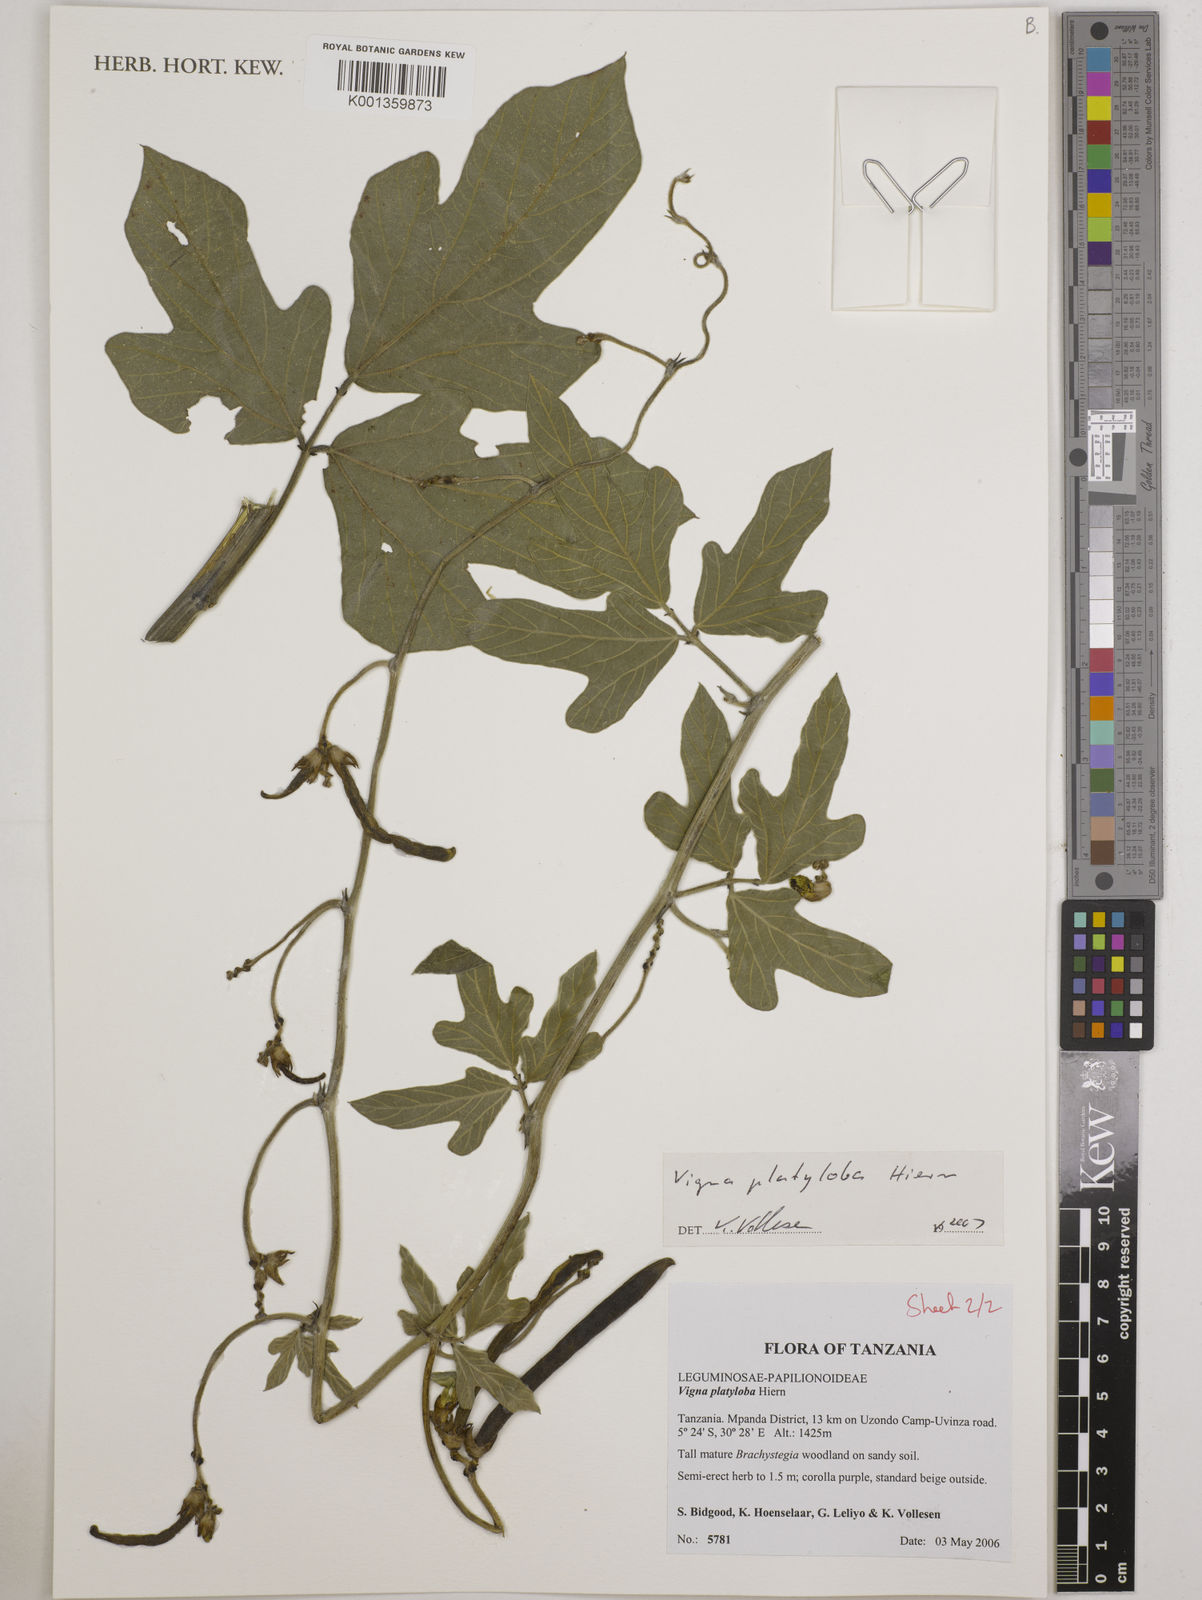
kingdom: Plantae
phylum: Tracheophyta
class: Magnoliopsida
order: Fabales
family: Fabaceae
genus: Vigna
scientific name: Vigna platyloba
